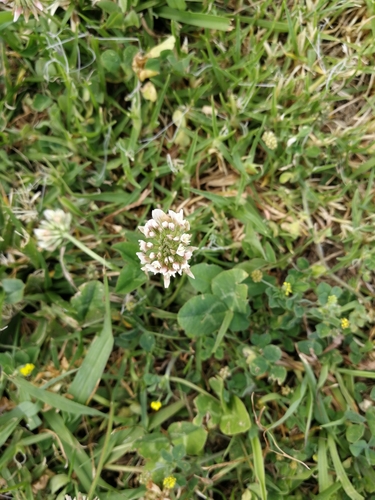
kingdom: Plantae
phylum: Tracheophyta
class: Magnoliopsida
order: Fabales
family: Fabaceae
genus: Trifolium
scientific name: Trifolium repens
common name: White clover
